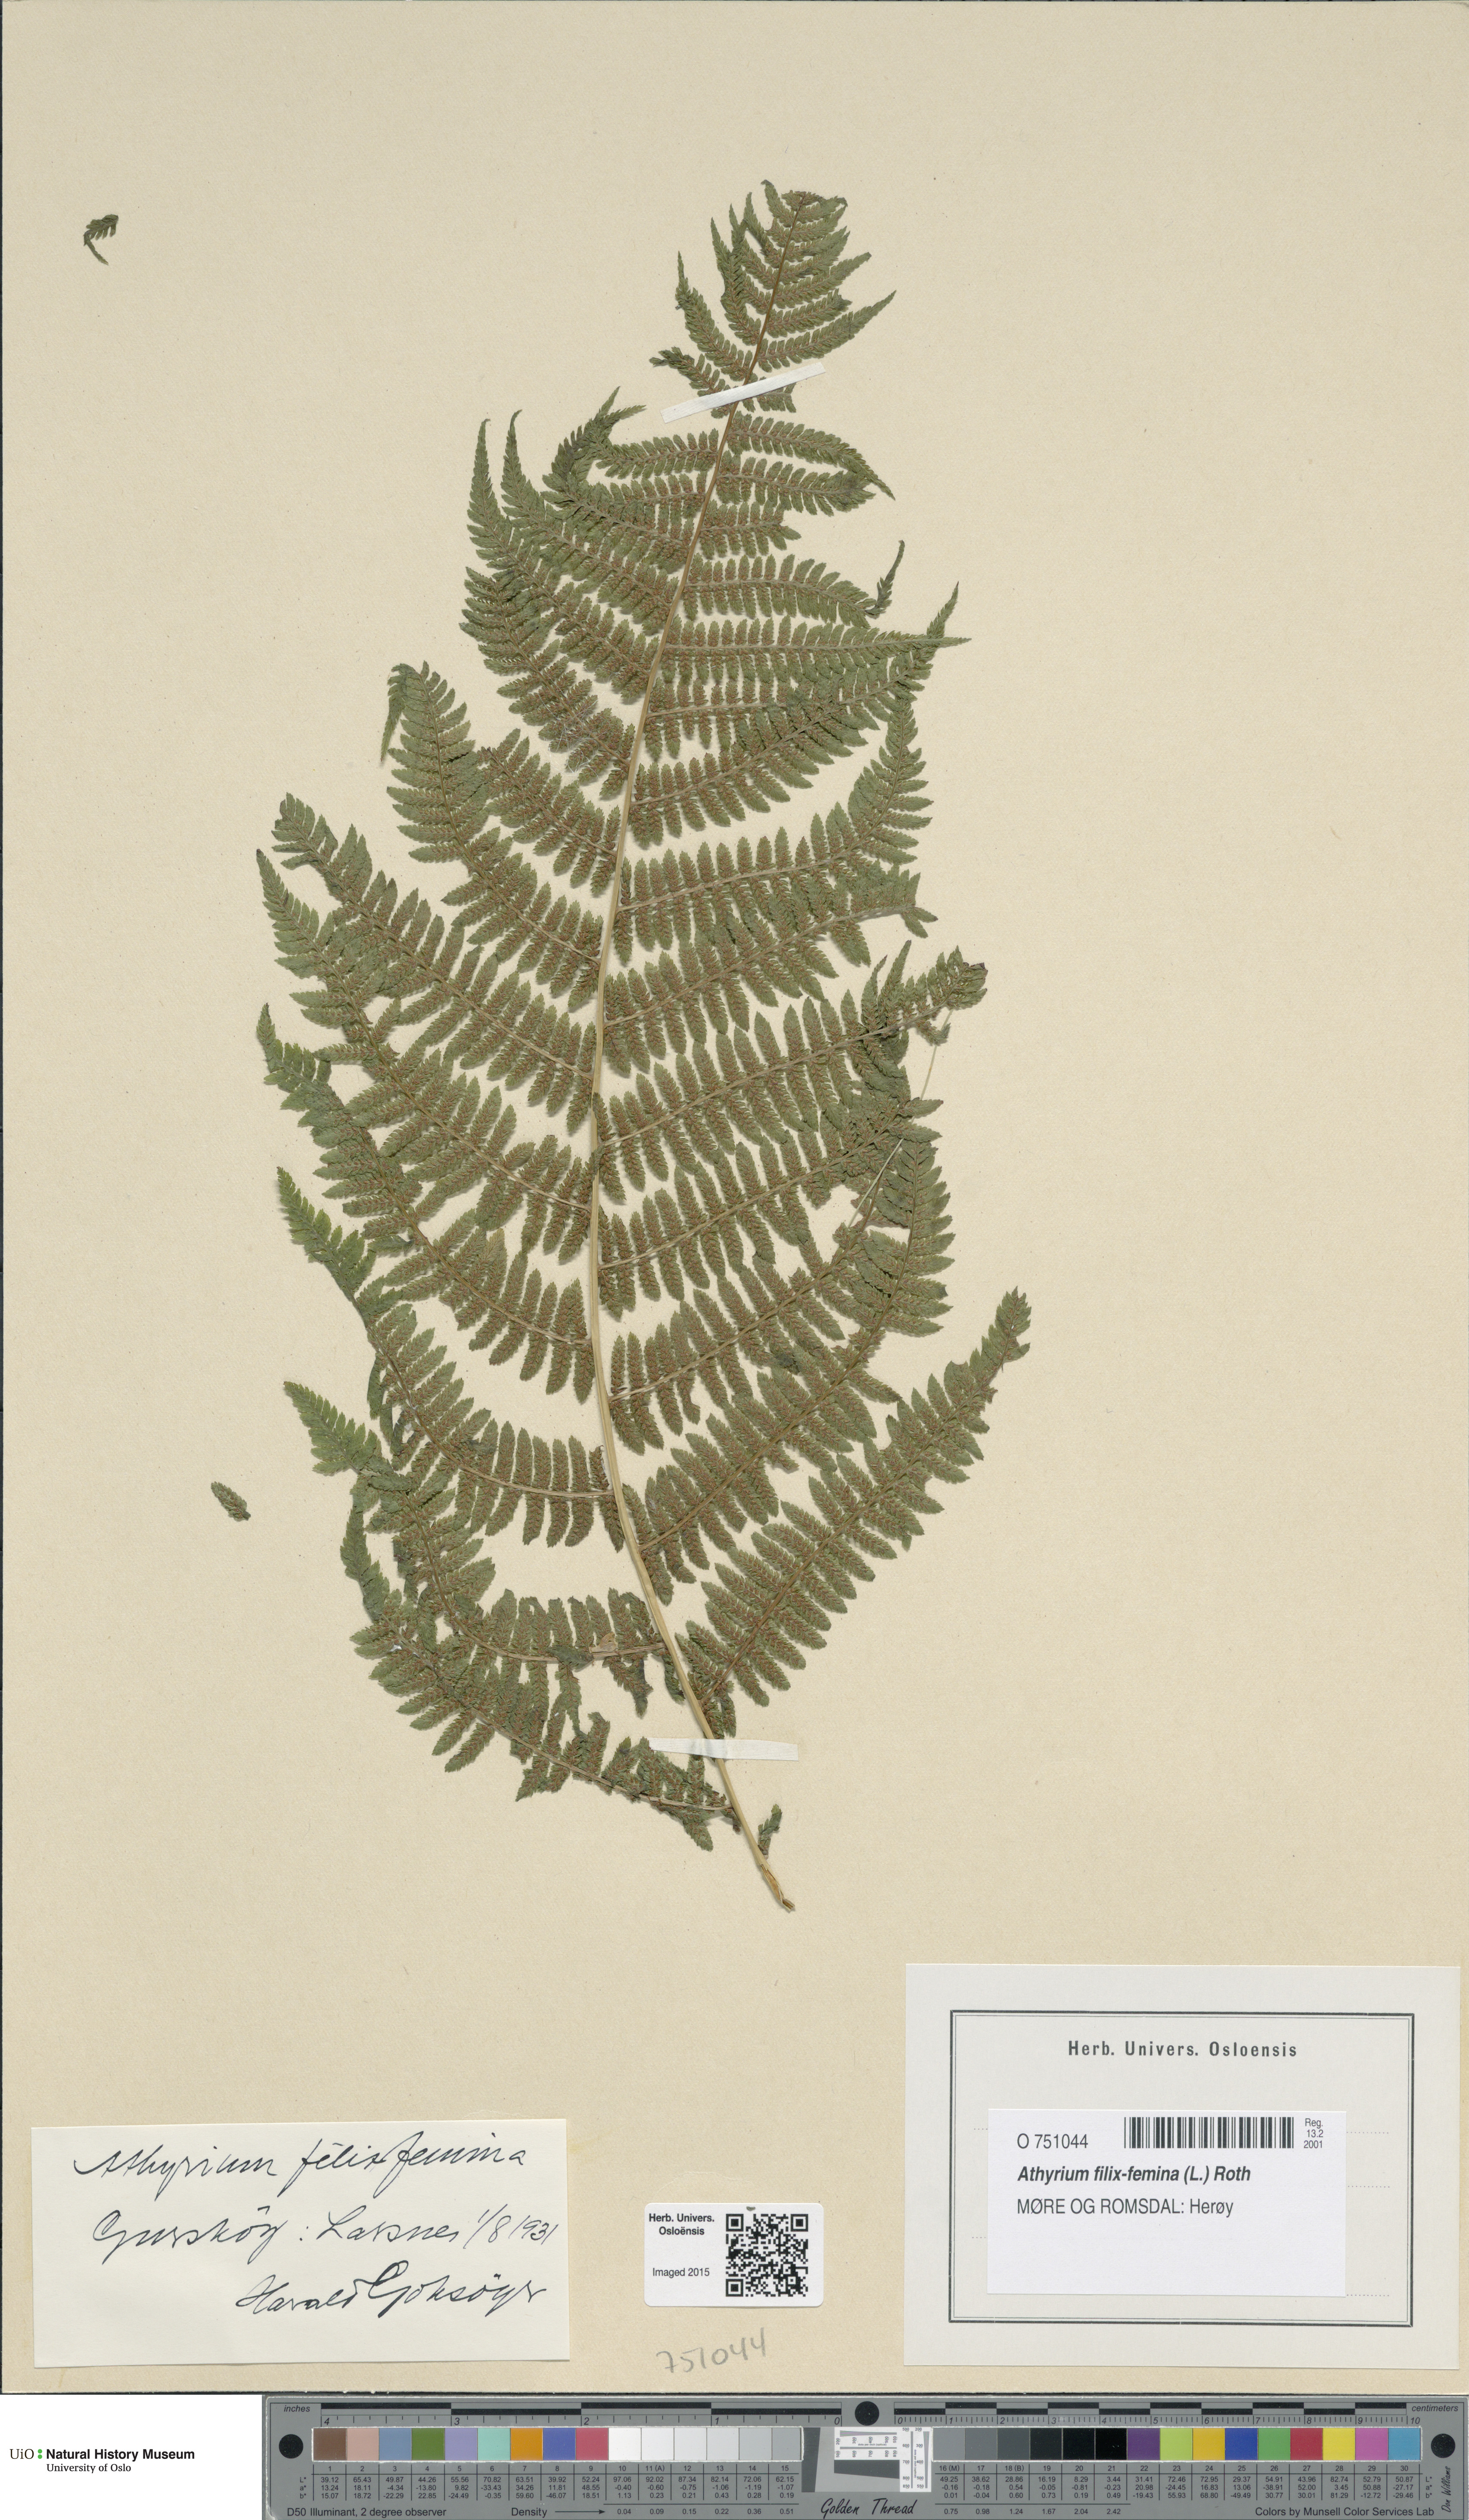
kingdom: Plantae
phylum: Tracheophyta
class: Polypodiopsida
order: Polypodiales
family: Athyriaceae
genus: Athyrium
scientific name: Athyrium filix-femina
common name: Lady fern
